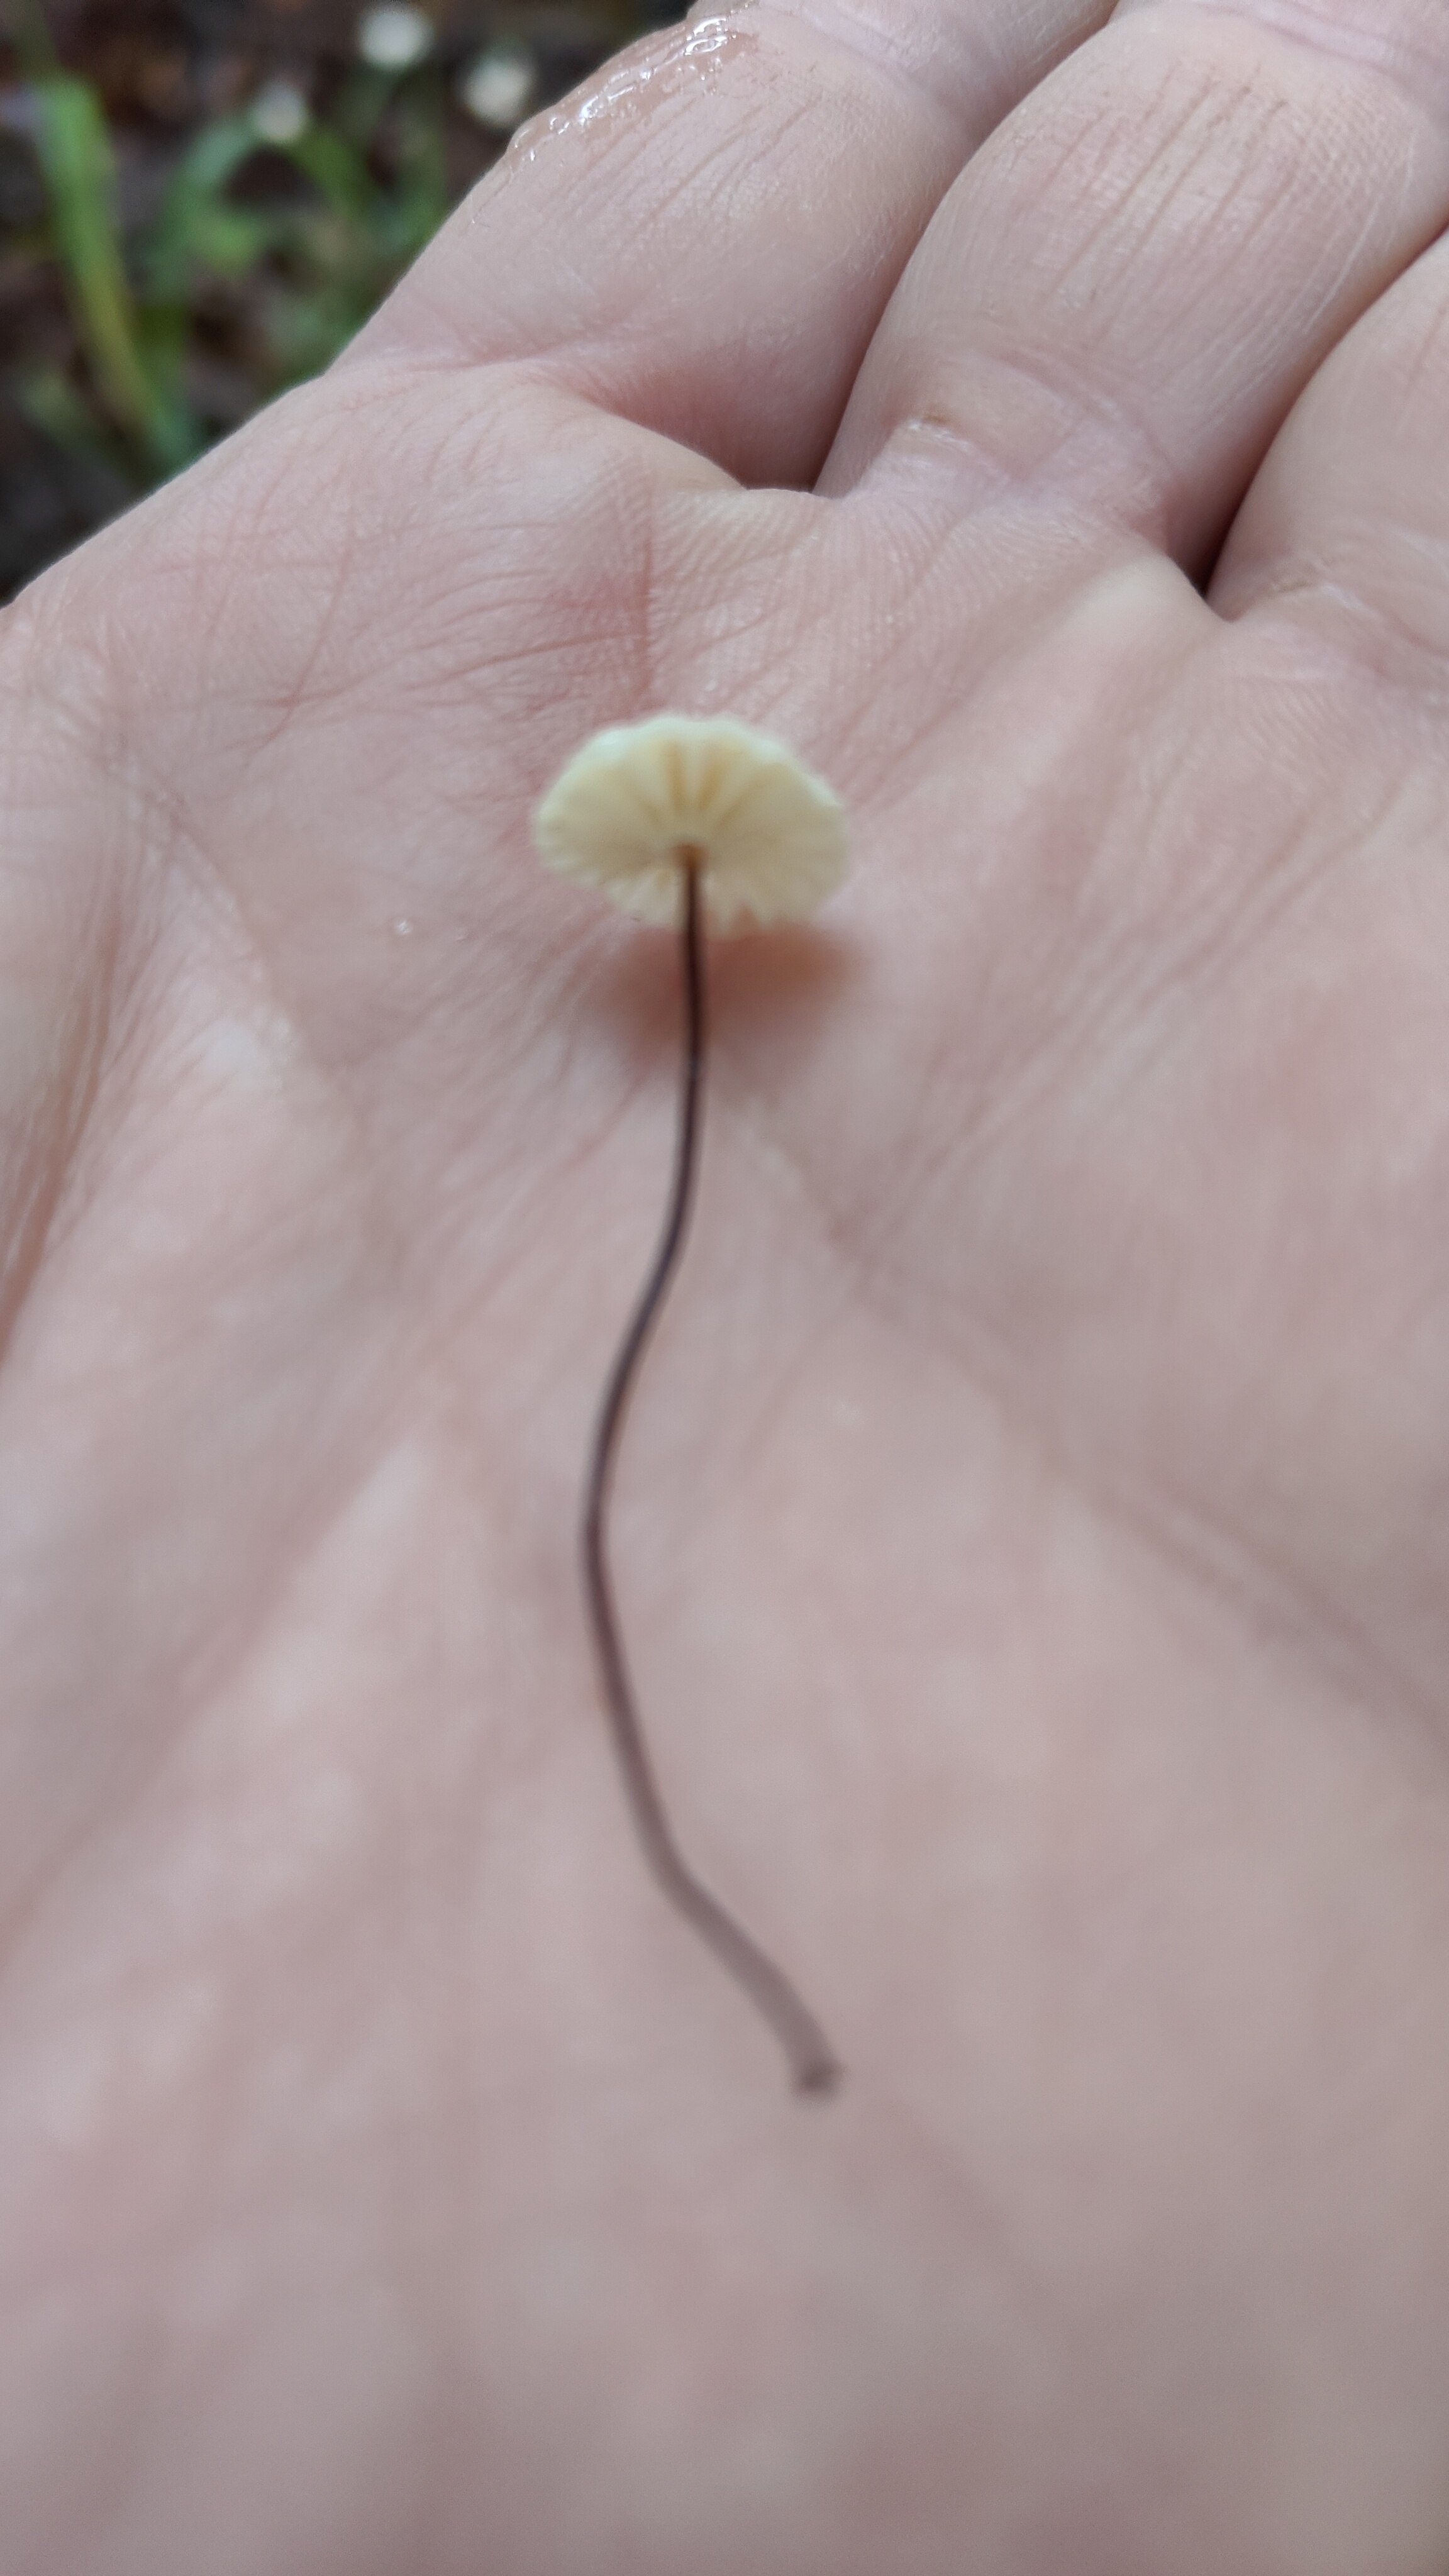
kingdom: Fungi
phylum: Basidiomycota
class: Agaricomycetes
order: Agaricales
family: Marasmiaceae
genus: Marasmius
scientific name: Marasmius rotula
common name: hjul-bruskhat
